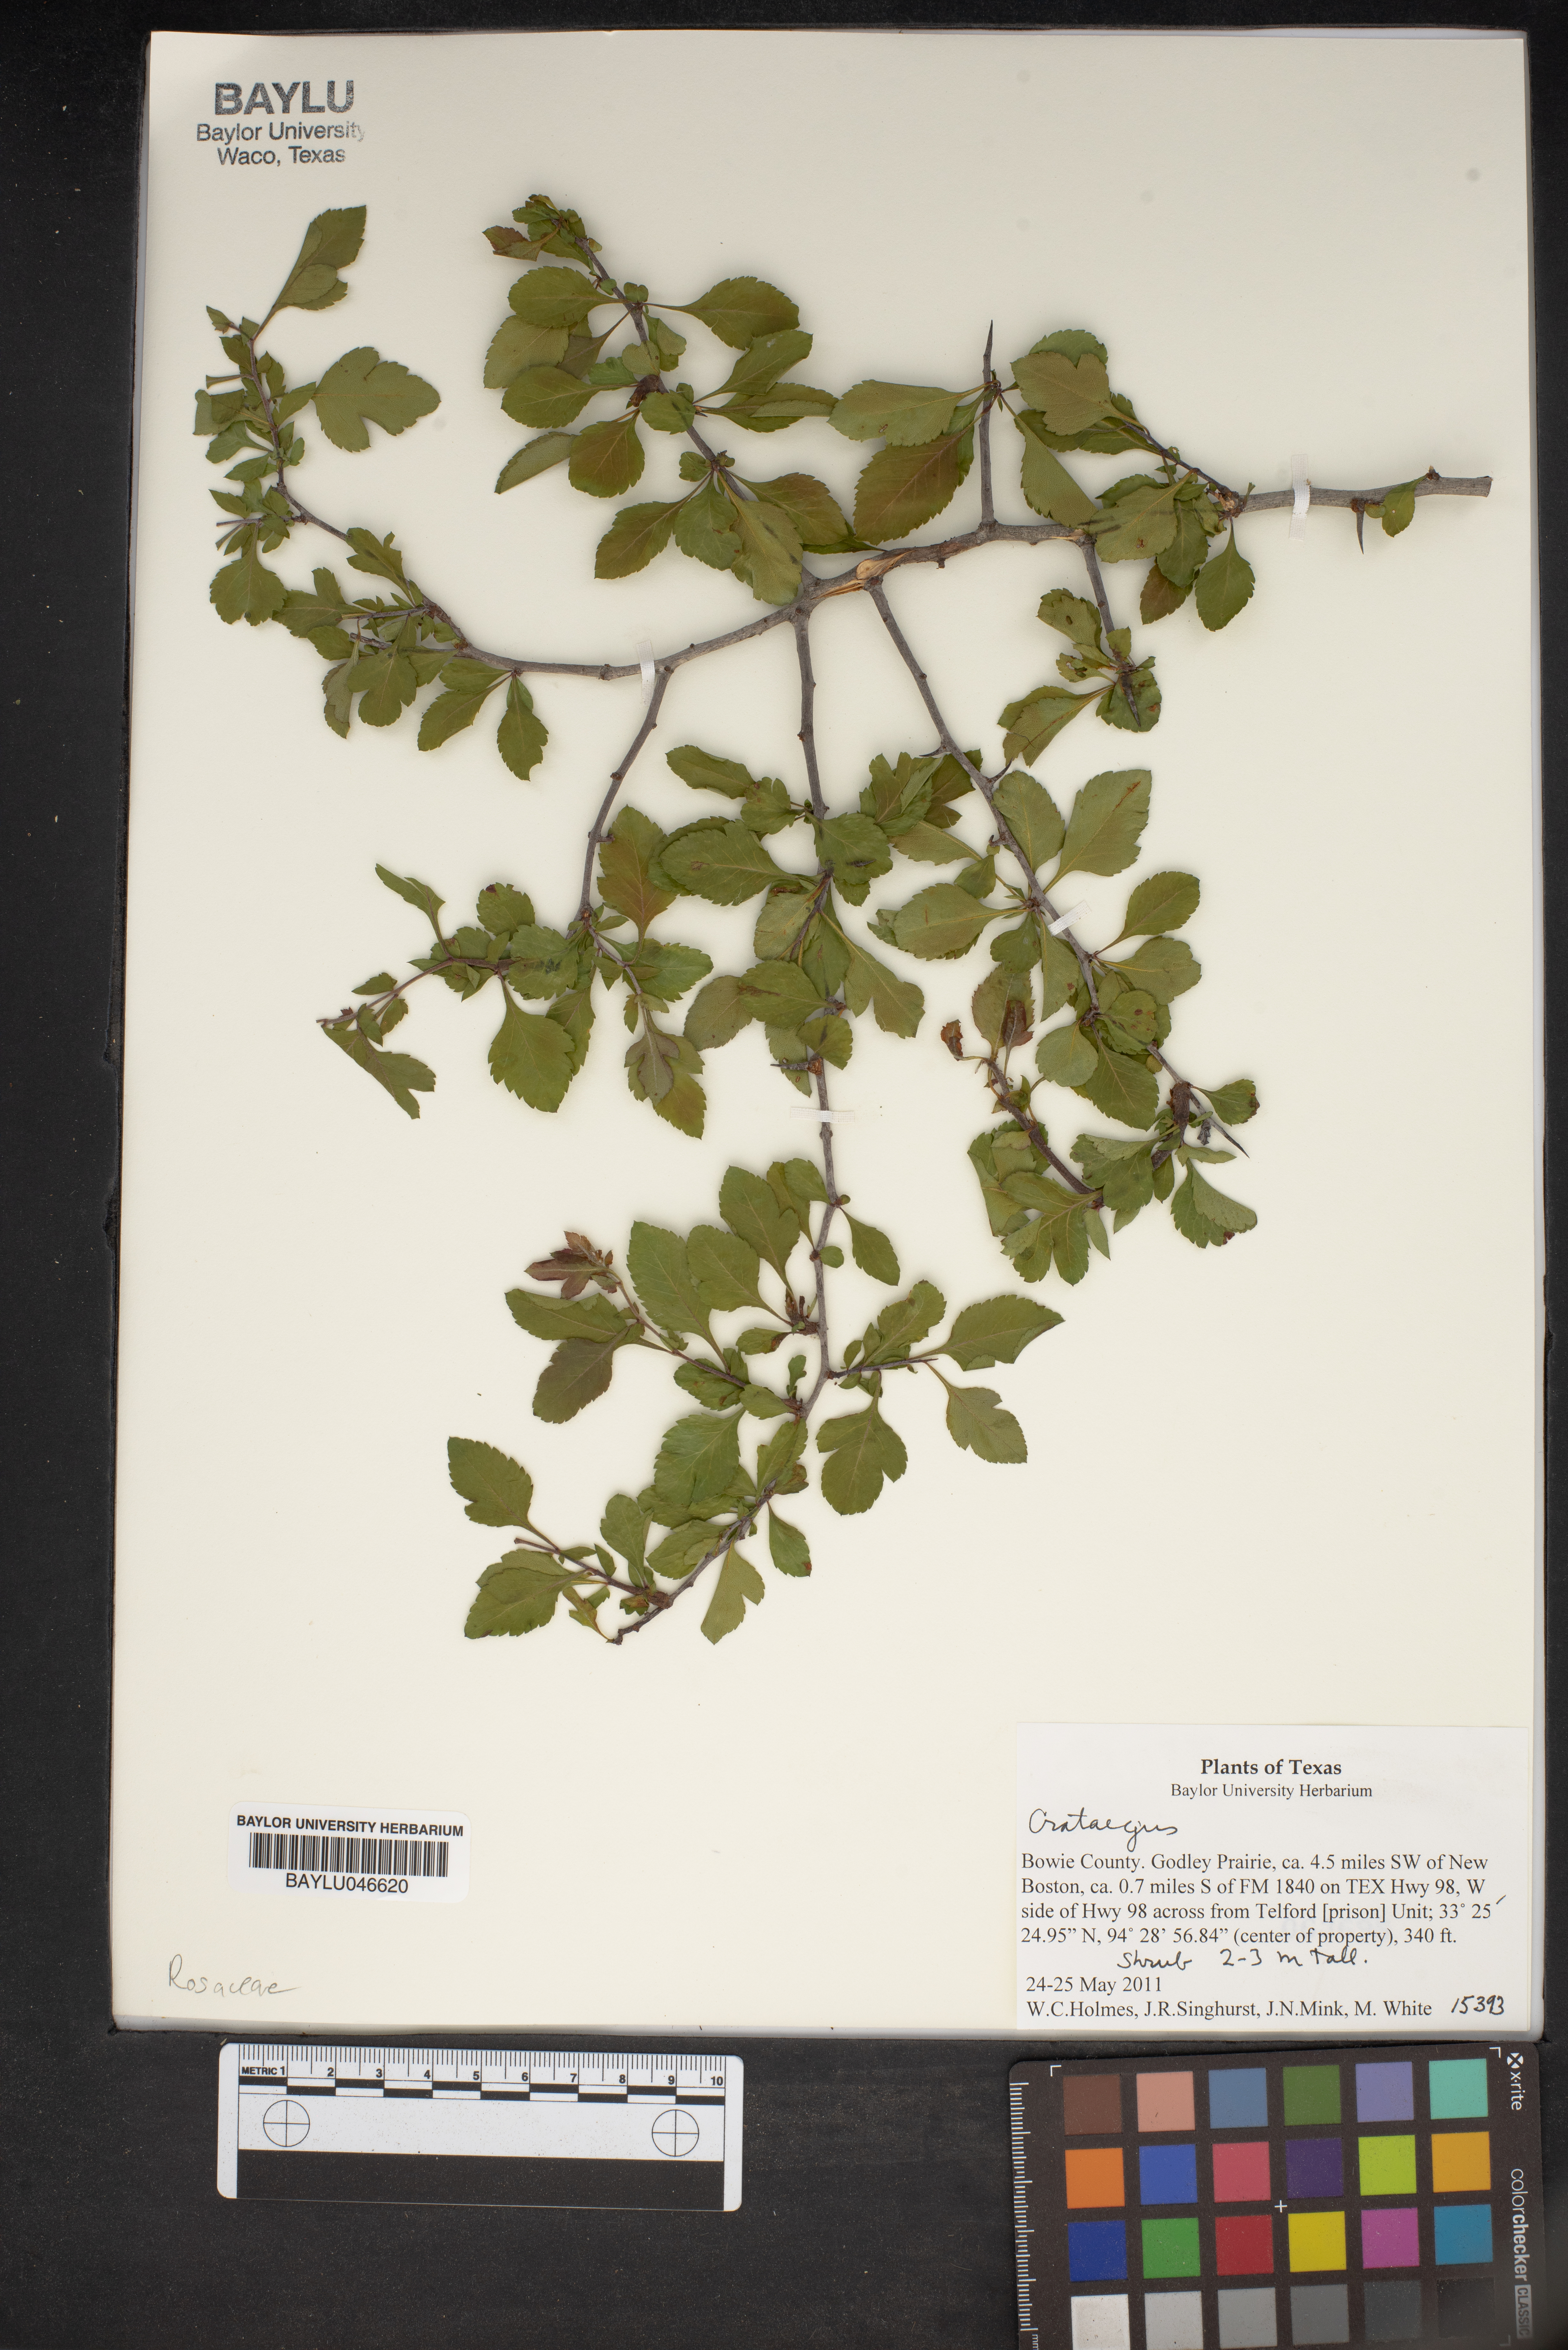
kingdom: Plantae
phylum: Tracheophyta
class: Magnoliopsida
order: Rosales
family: Rosaceae
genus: Crataegus
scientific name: Crataegus
